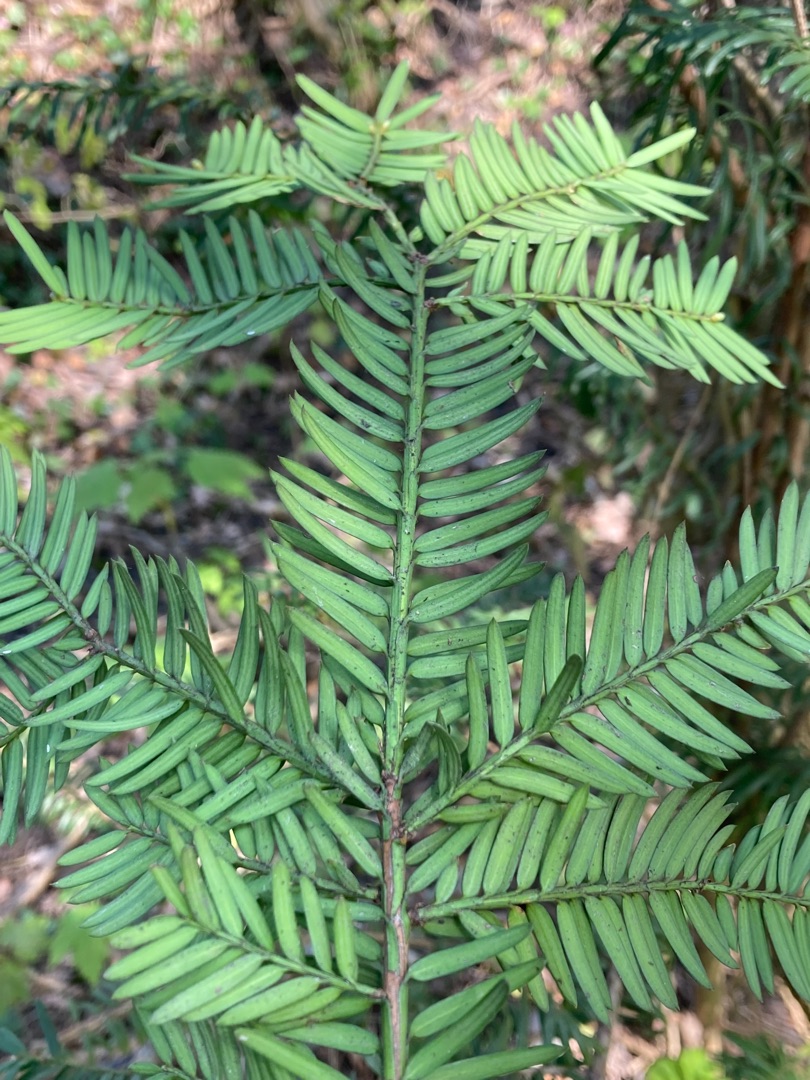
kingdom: Plantae
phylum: Tracheophyta
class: Pinopsida
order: Pinales
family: Taxaceae
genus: Taxus
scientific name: Taxus baccata
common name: Almindelig taks
